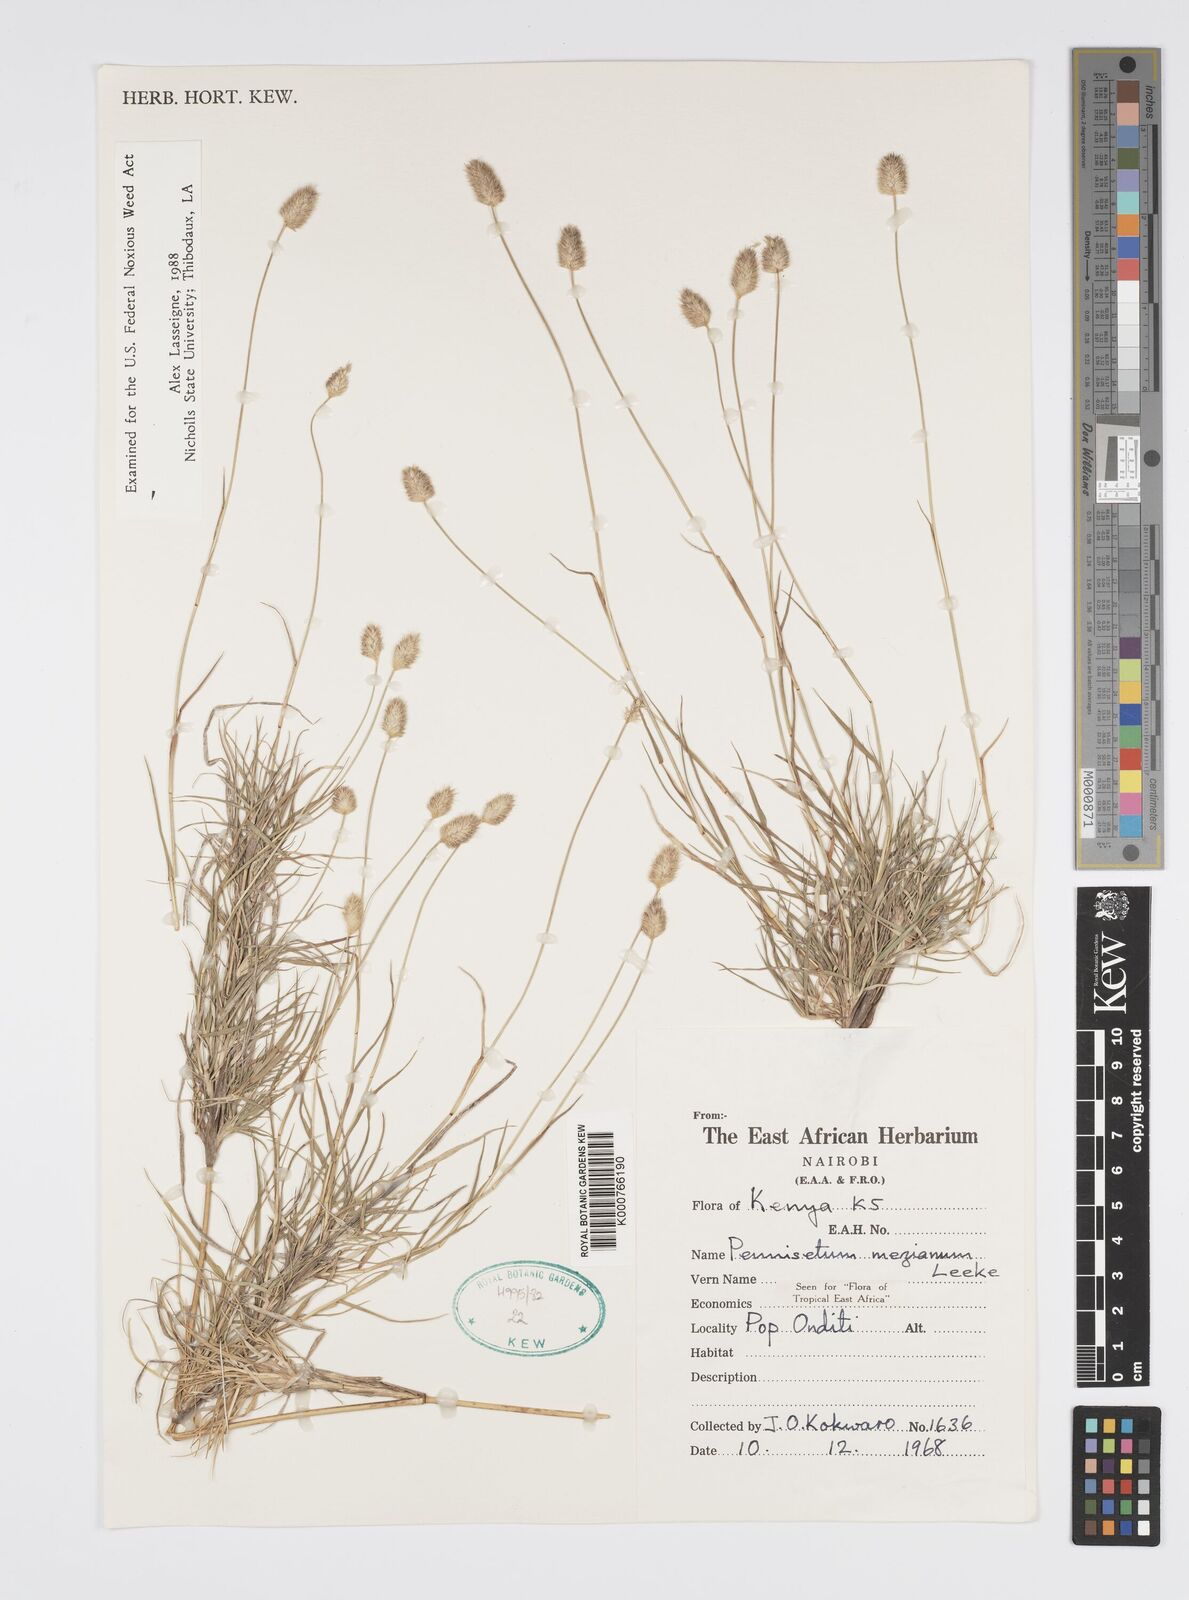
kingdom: Plantae
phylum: Tracheophyta
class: Liliopsida
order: Poales
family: Poaceae
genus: Cenchrus
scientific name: Cenchrus mezianus
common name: Bamboo grass
